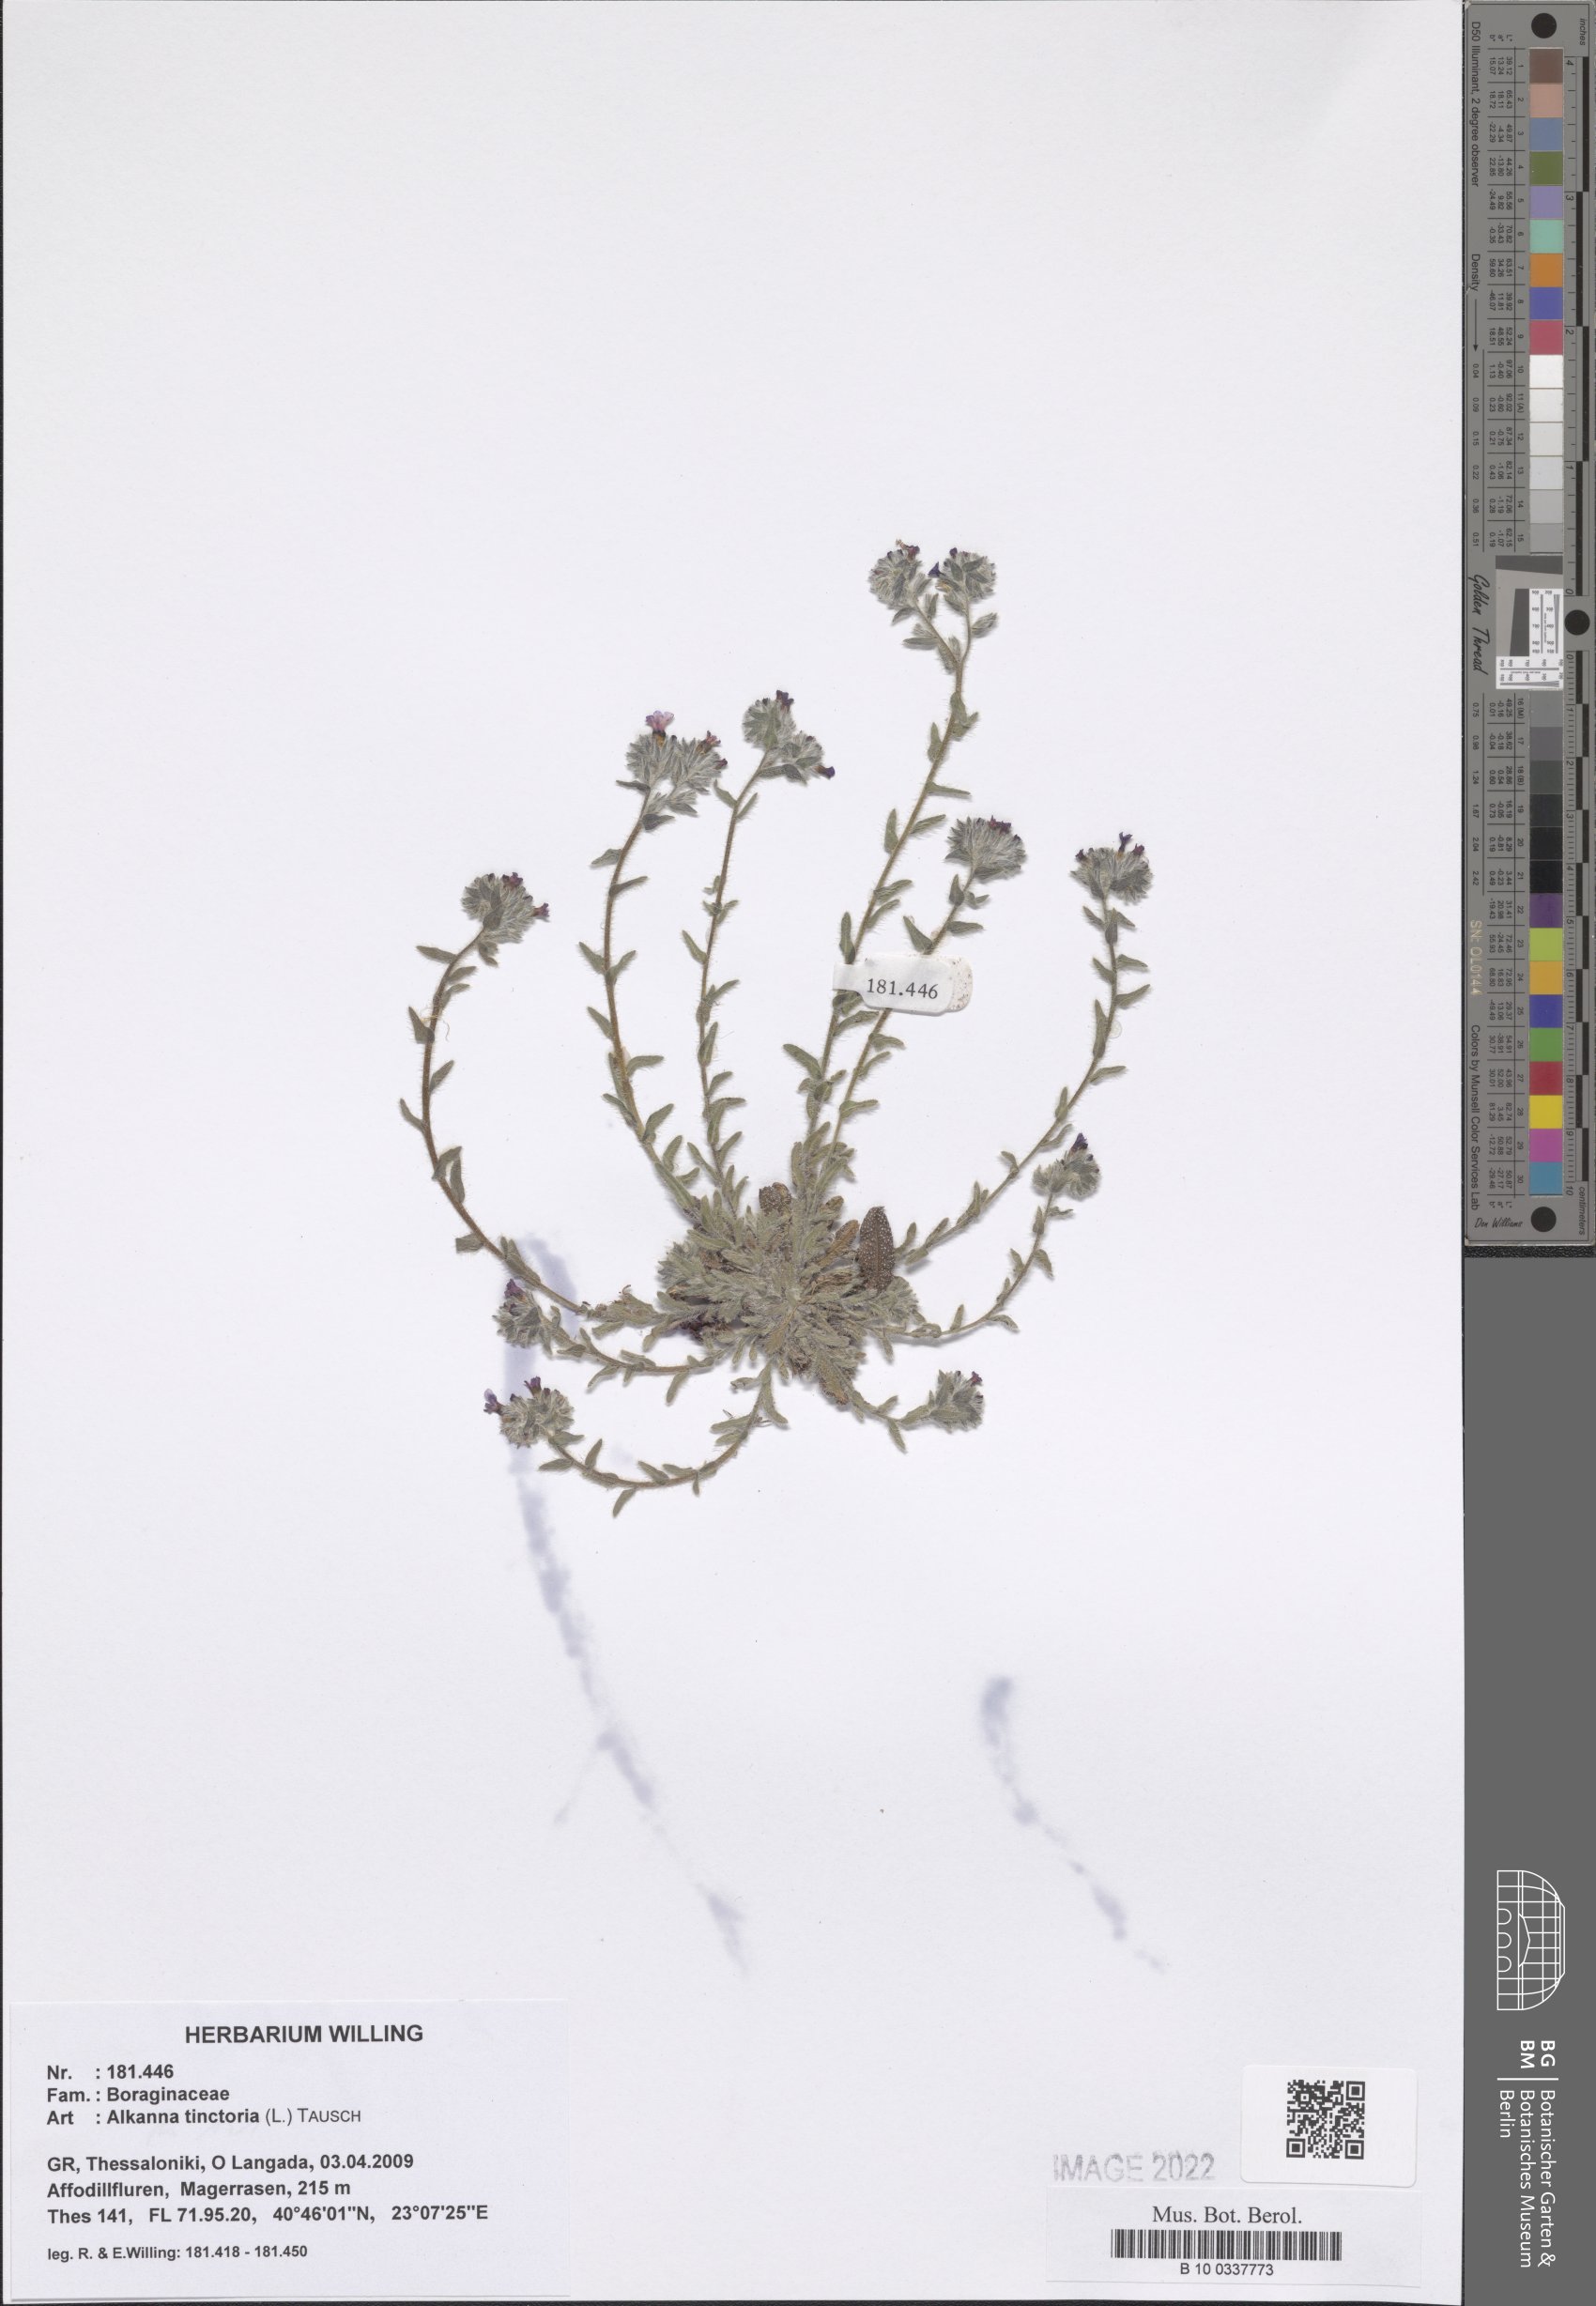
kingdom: Plantae
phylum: Tracheophyta
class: Magnoliopsida
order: Boraginales
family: Boraginaceae
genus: Alkanna
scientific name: Alkanna tinctoria
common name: Dyer's-alkanet
